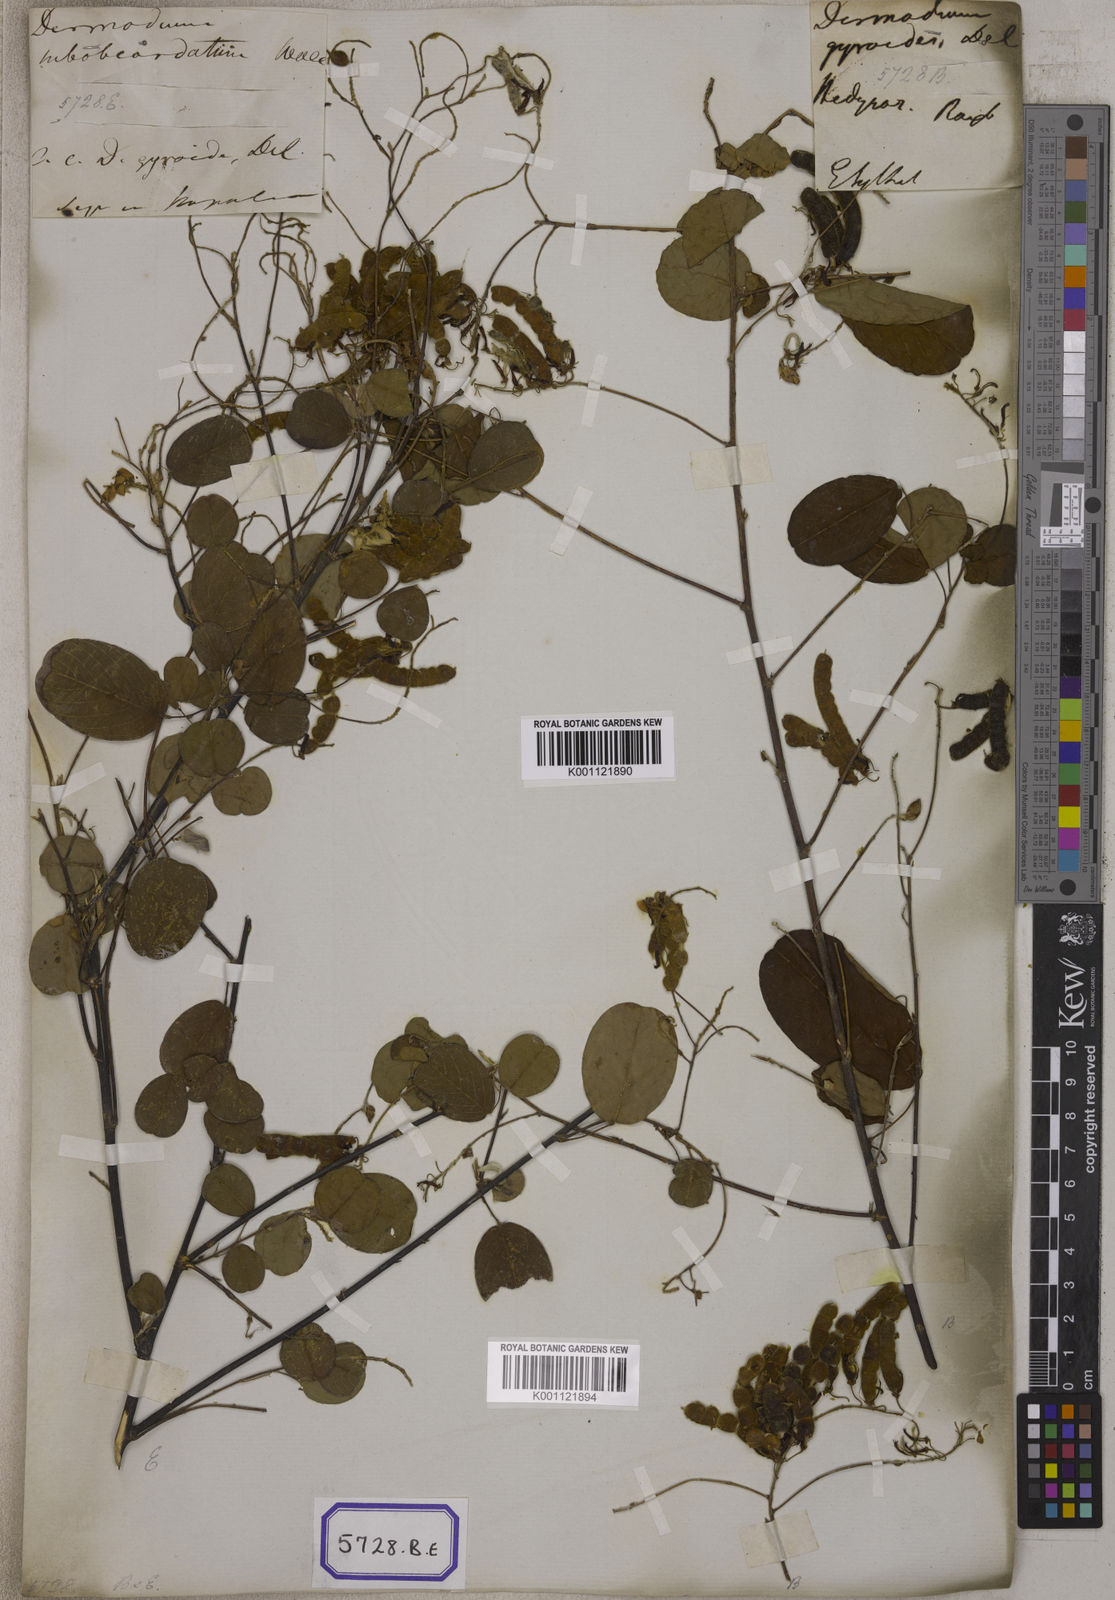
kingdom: Plantae
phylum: Tracheophyta
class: Magnoliopsida
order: Fabales
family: Fabaceae
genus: Codariocalyx
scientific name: Codariocalyx gyroides
